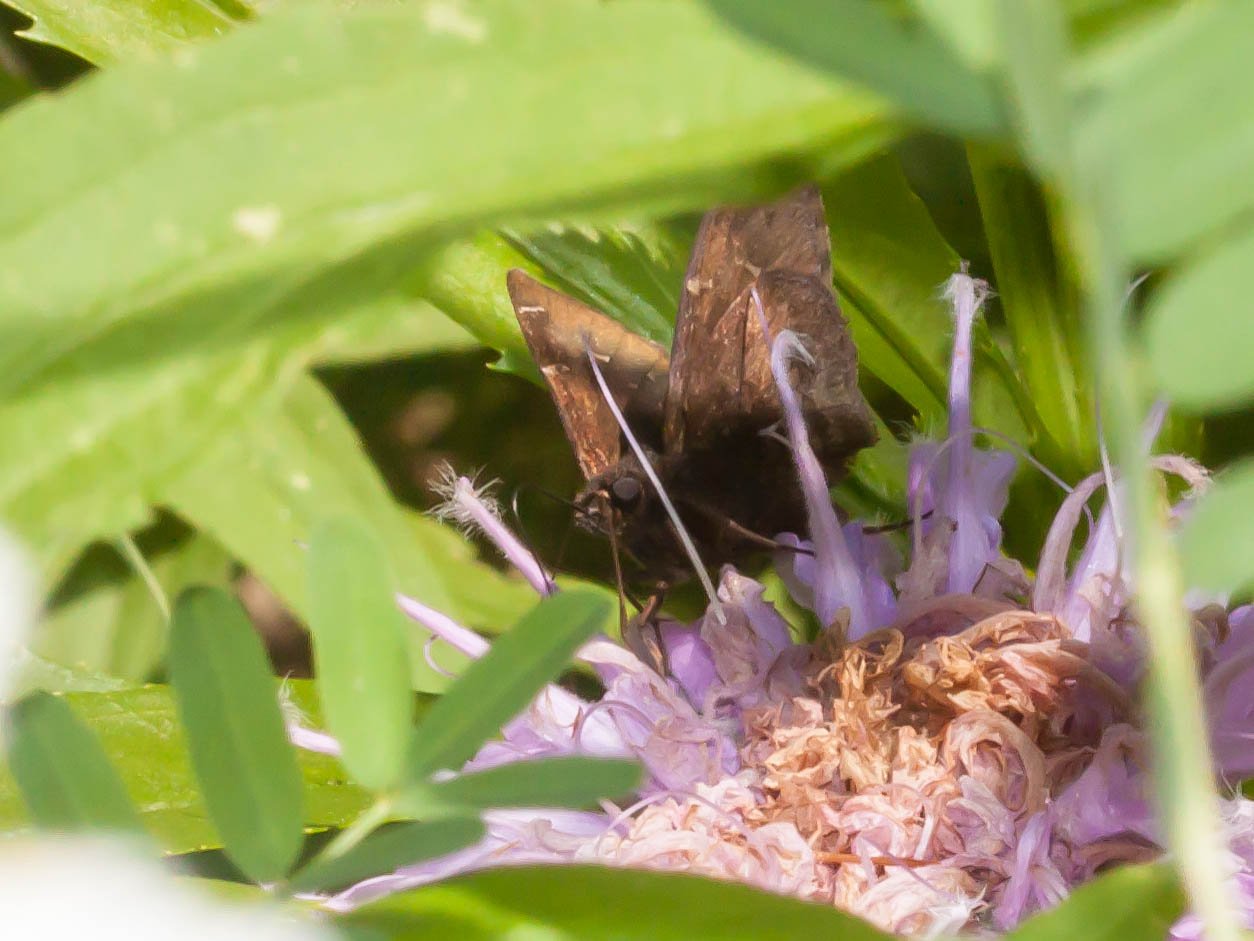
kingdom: Animalia
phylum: Arthropoda
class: Insecta
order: Lepidoptera
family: Hesperiidae
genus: Autochton
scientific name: Autochton
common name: Northern Cloudywing
